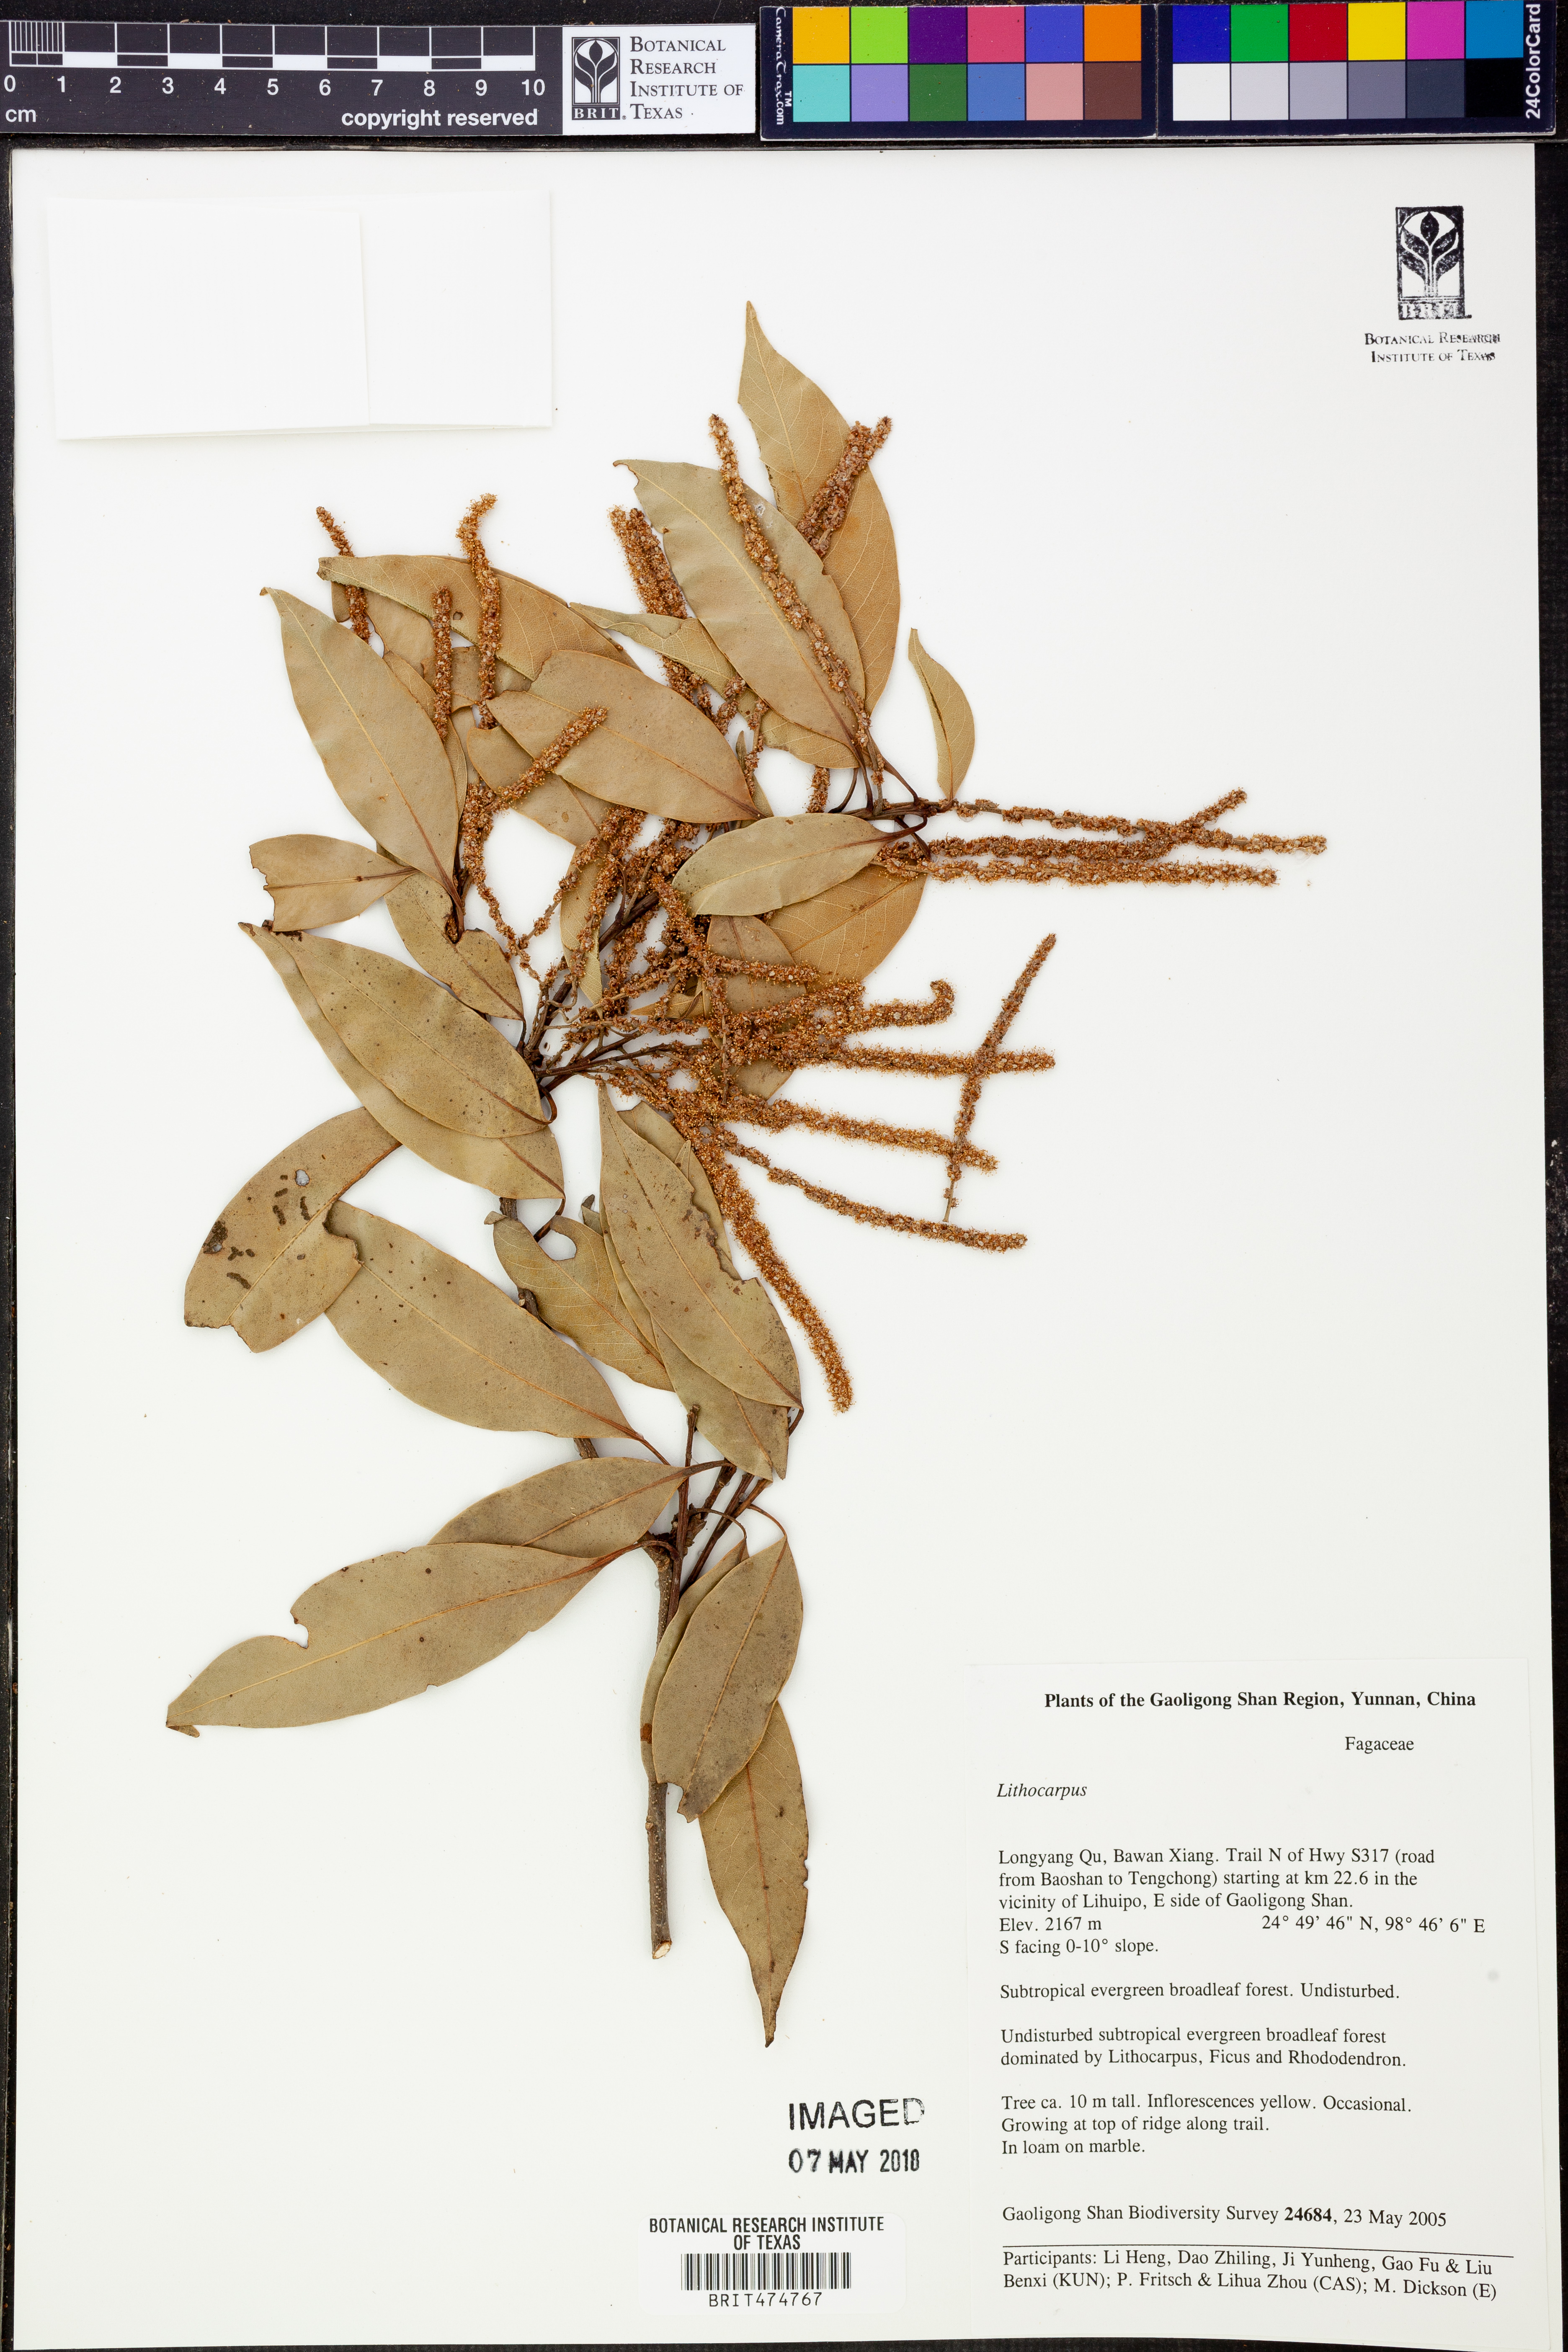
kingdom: Plantae
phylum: Tracheophyta
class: Magnoliopsida
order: Fagales
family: Fagaceae
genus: Lithocarpus
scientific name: Lithocarpus
